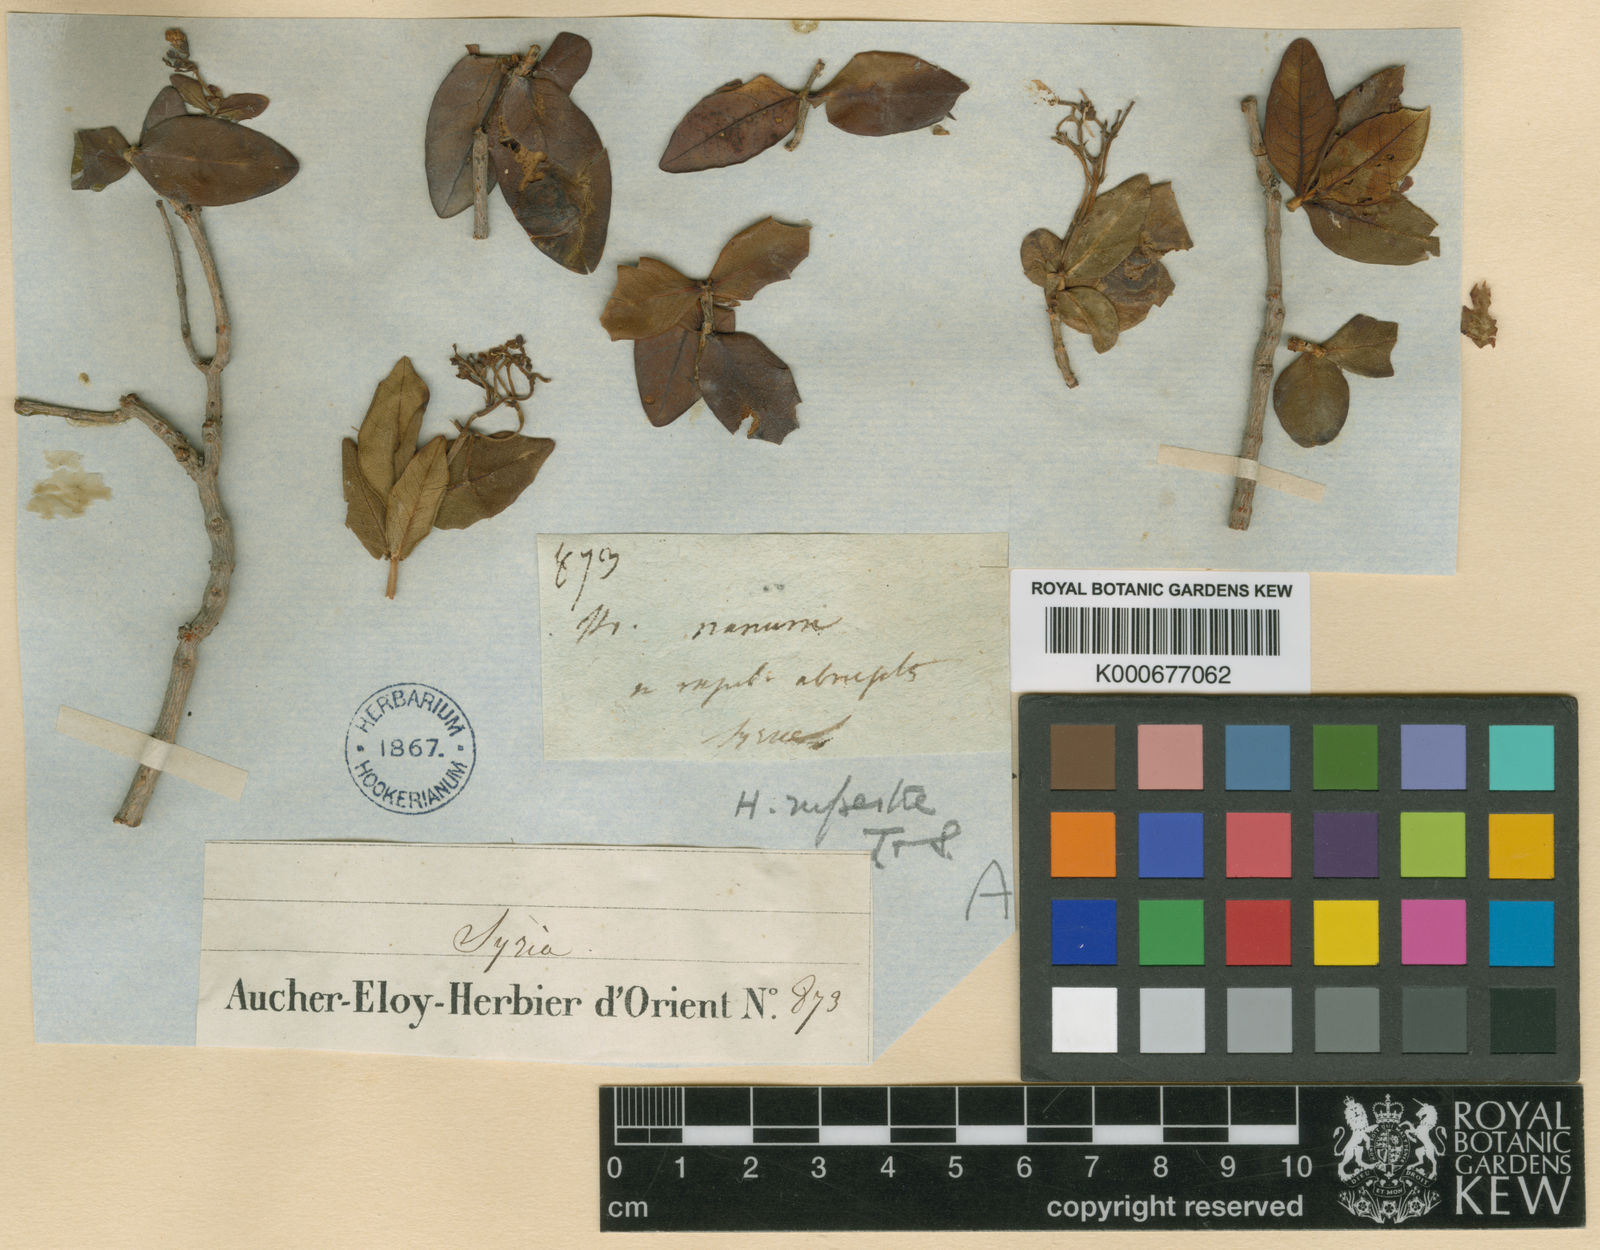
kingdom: Plantae
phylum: Tracheophyta
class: Magnoliopsida
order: Malpighiales
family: Hypericaceae
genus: Hypericum
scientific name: Hypericum
